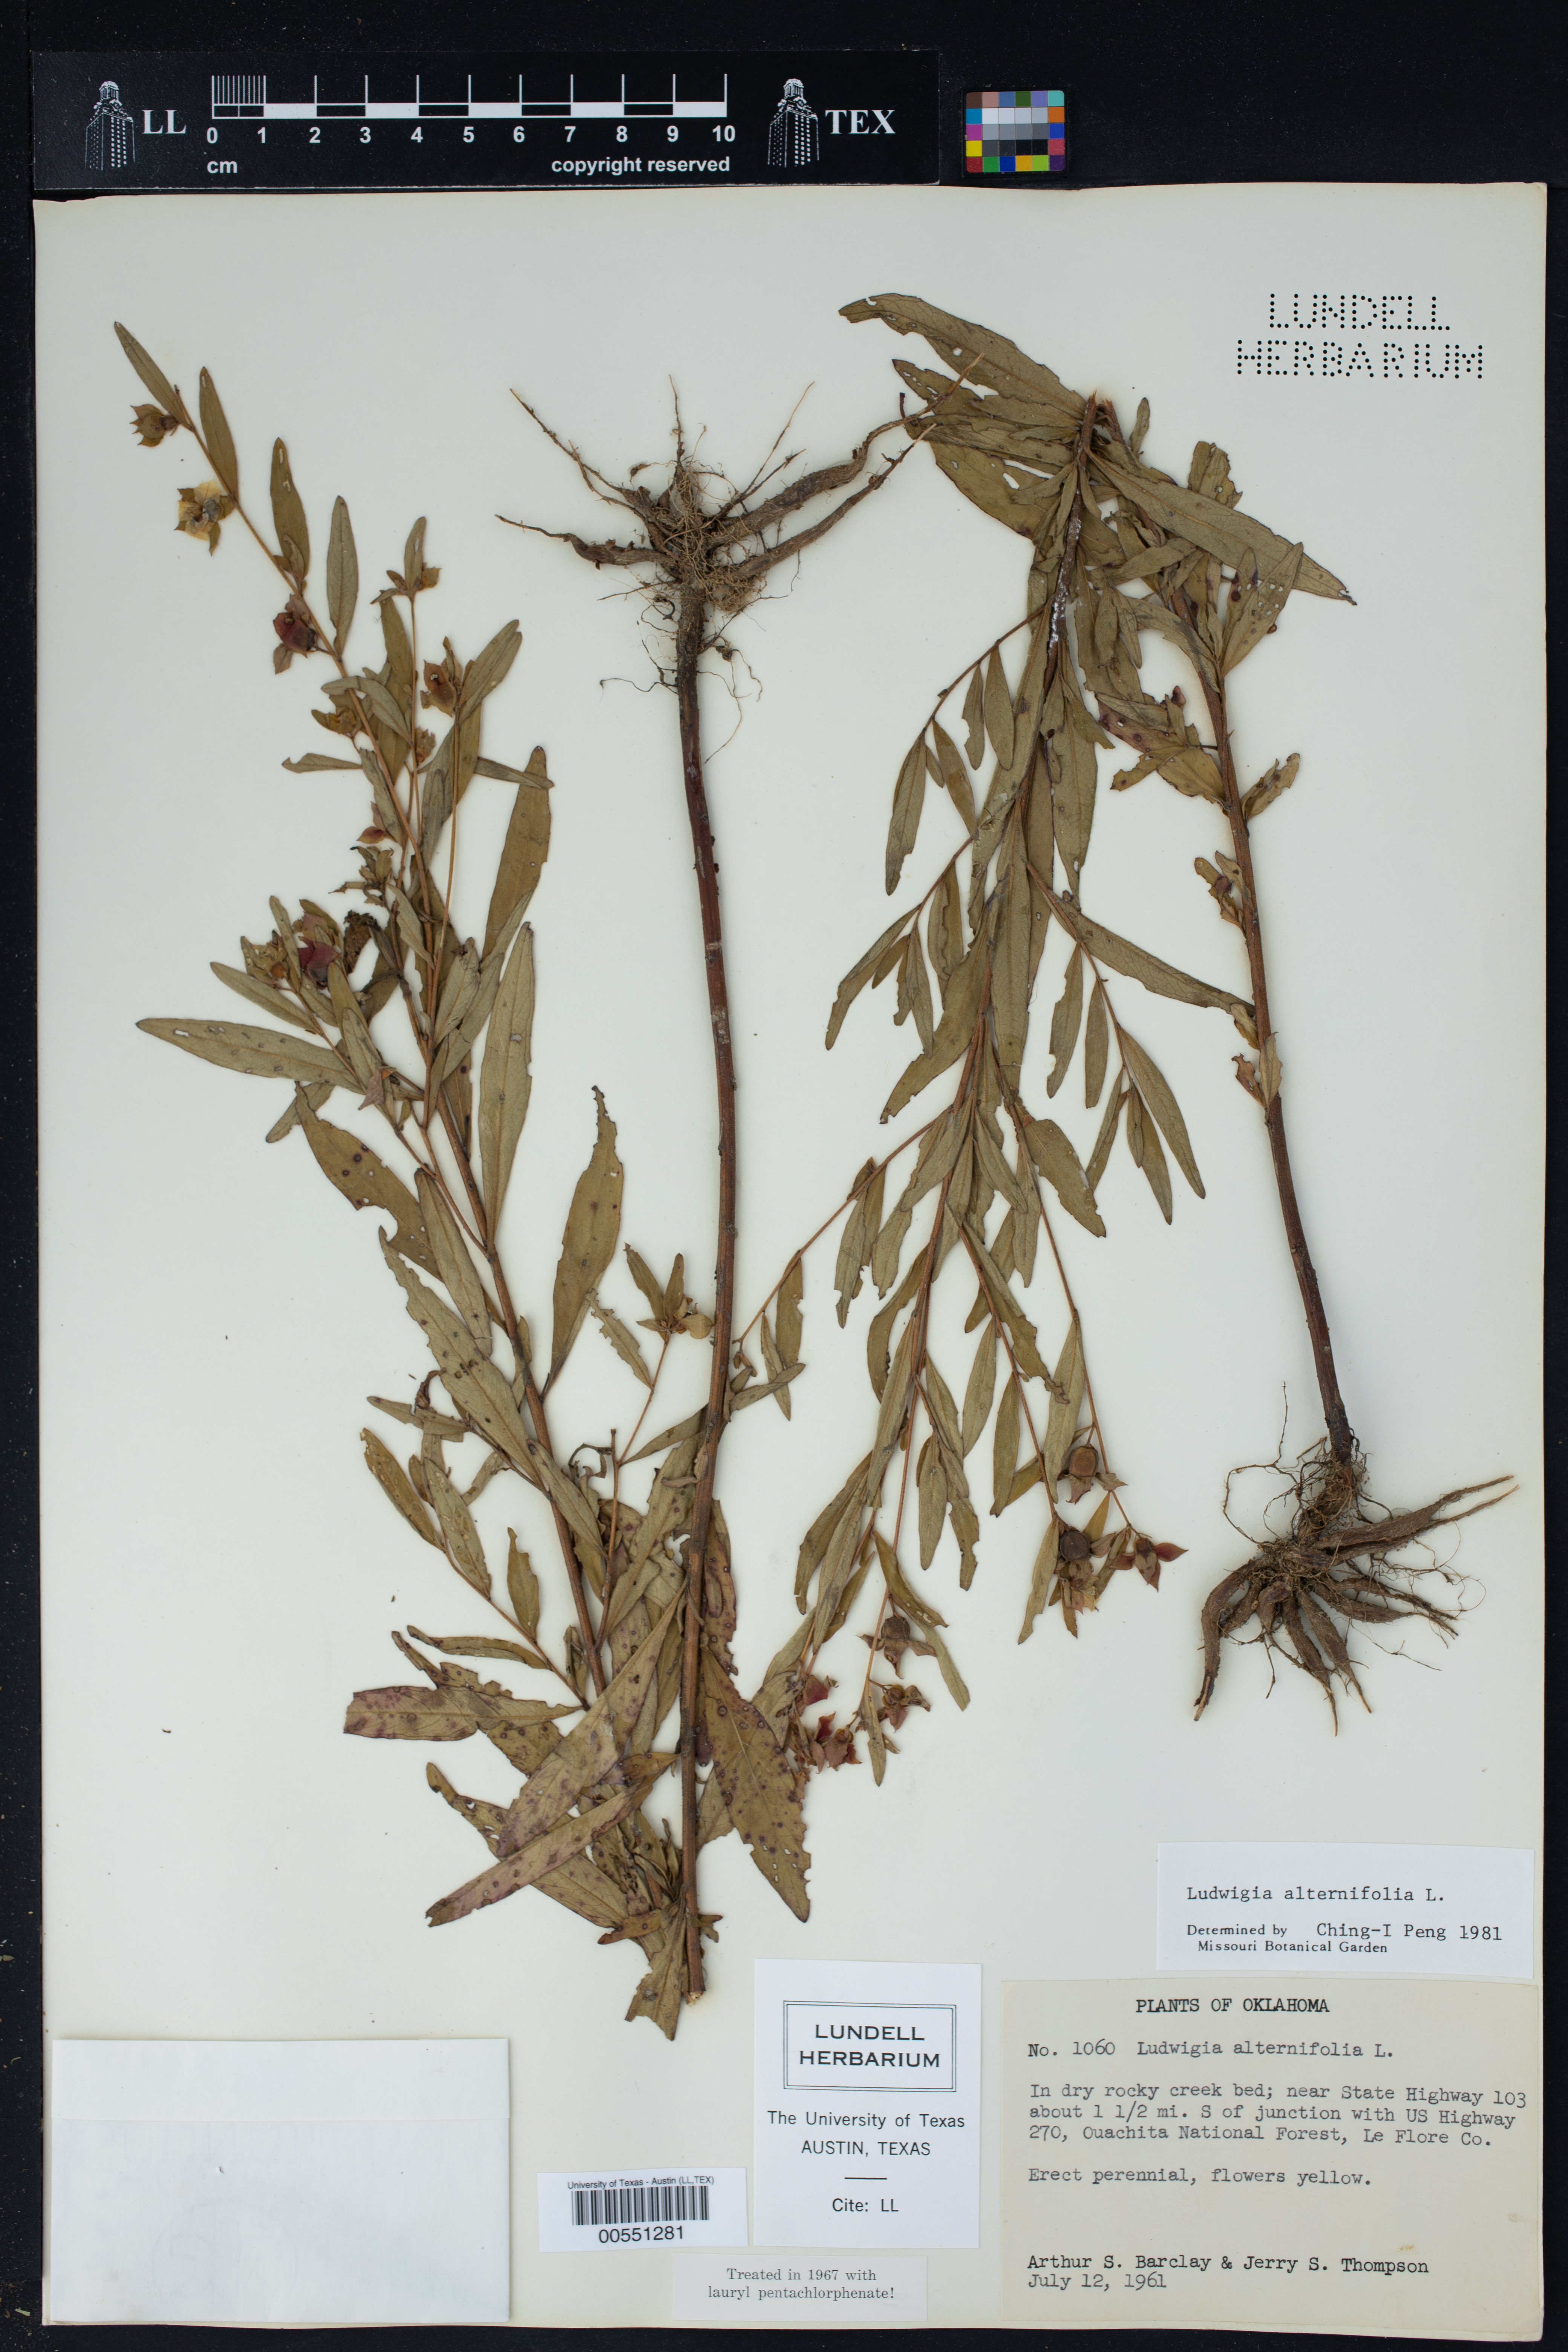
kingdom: Plantae
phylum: Tracheophyta
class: Magnoliopsida
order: Myrtales
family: Onagraceae
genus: Ludwigia
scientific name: Ludwigia alternifolia
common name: Rattlebox
